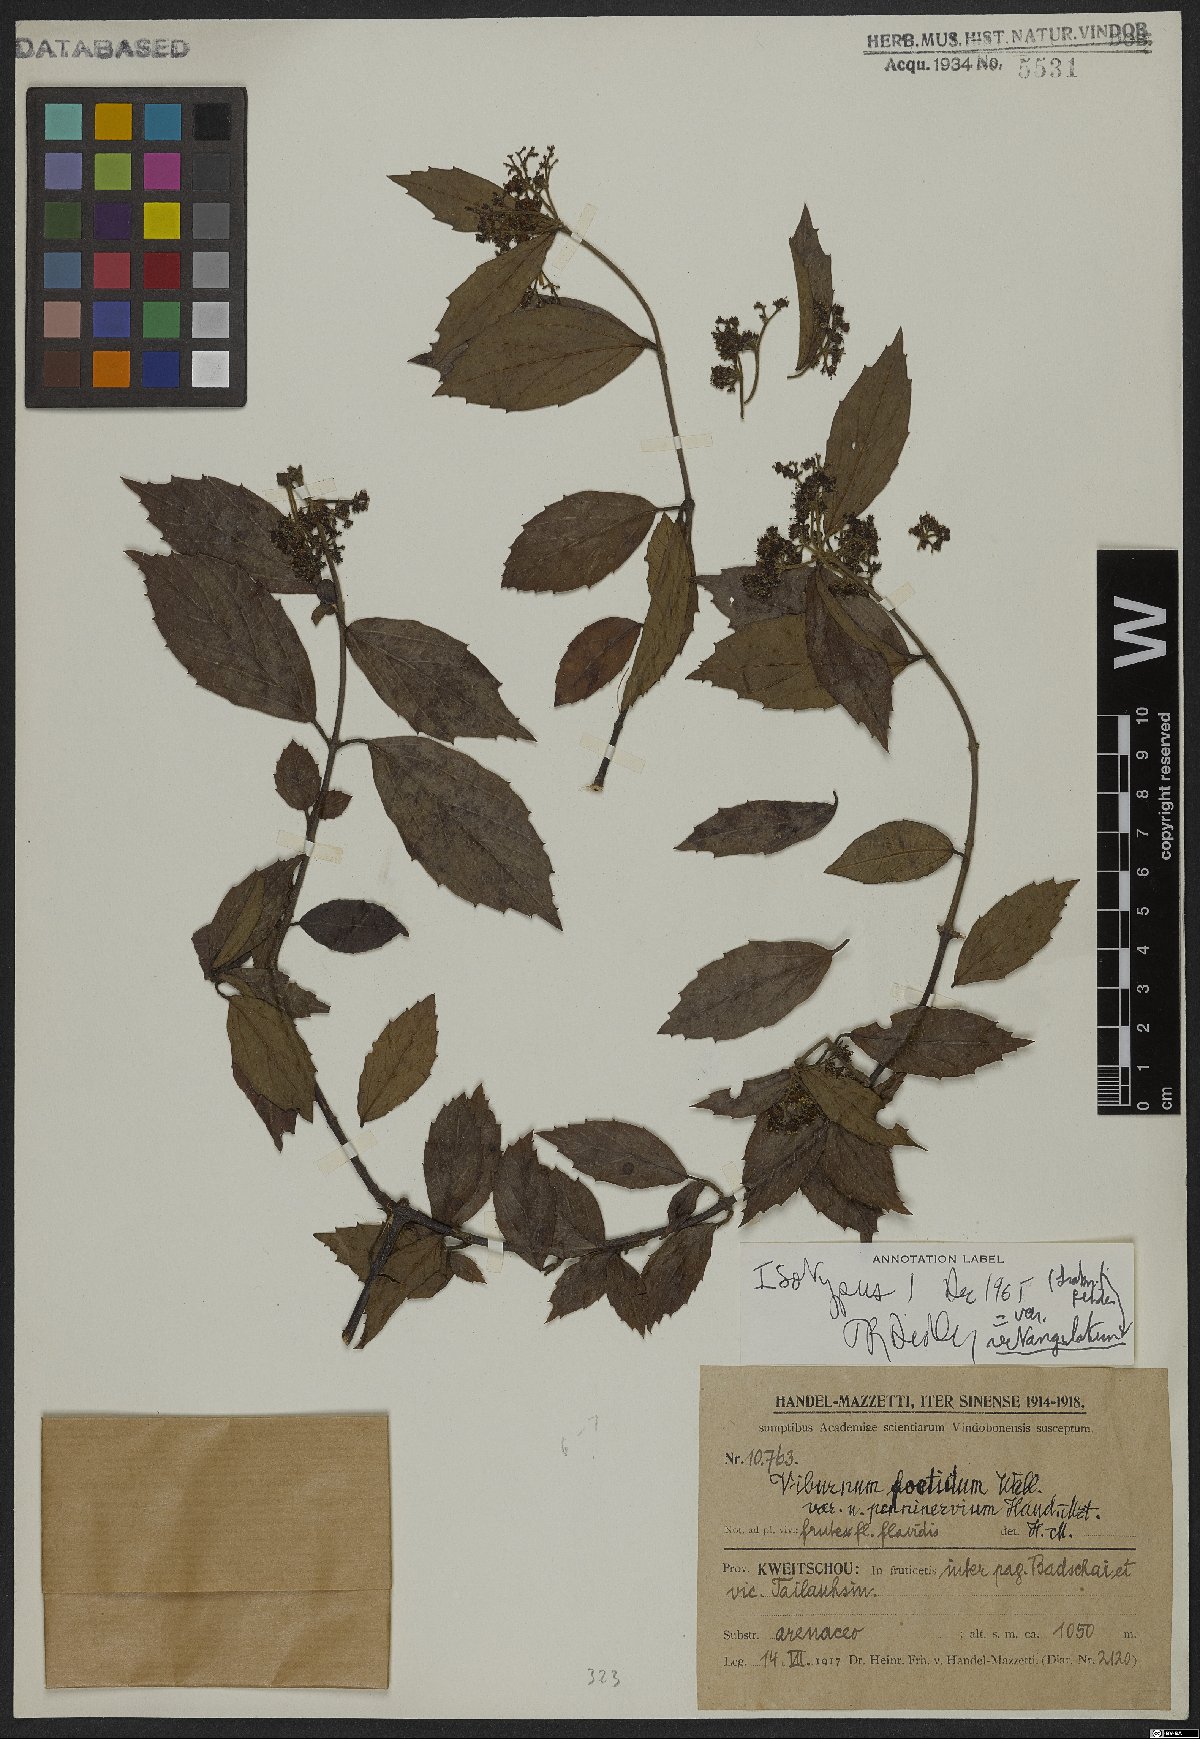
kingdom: Plantae
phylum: Tracheophyta
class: Magnoliopsida
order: Dipsacales
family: Viburnaceae
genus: Viburnum
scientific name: Viburnum foetidum
